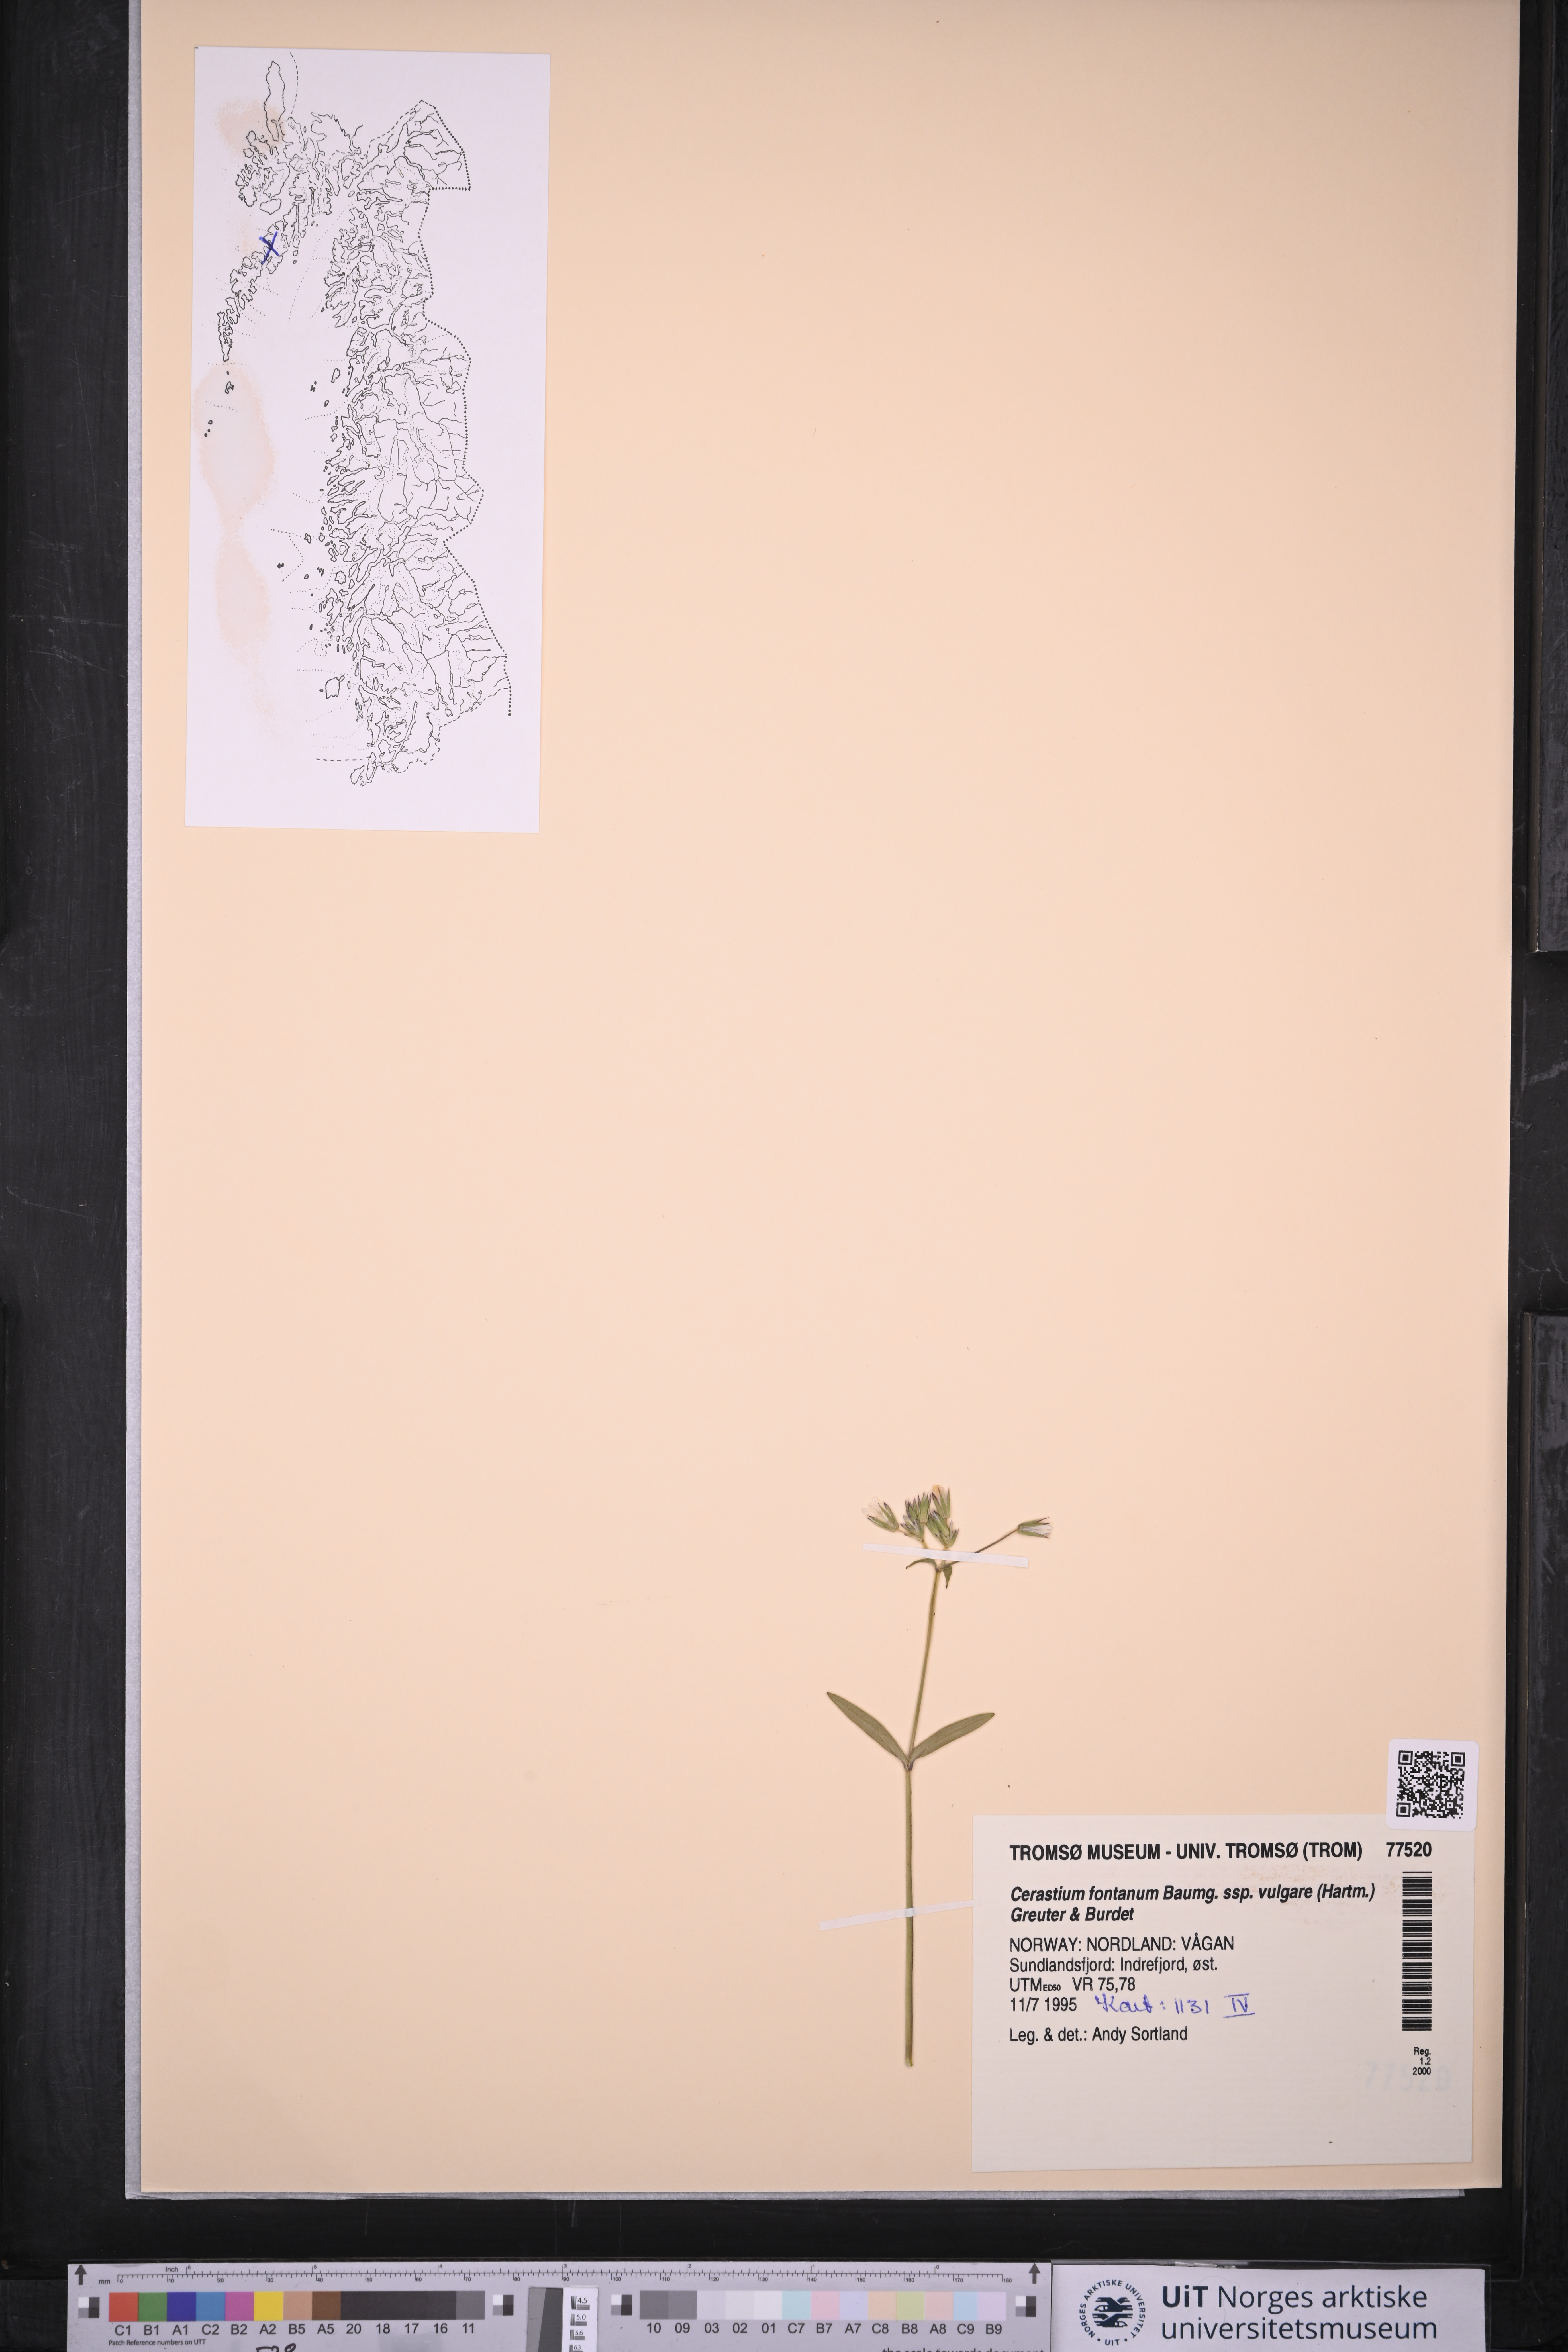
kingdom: Plantae
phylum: Tracheophyta
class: Magnoliopsida
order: Caryophyllales
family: Caryophyllaceae
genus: Cerastium
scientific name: Cerastium holosteoides
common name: Big chickweed
